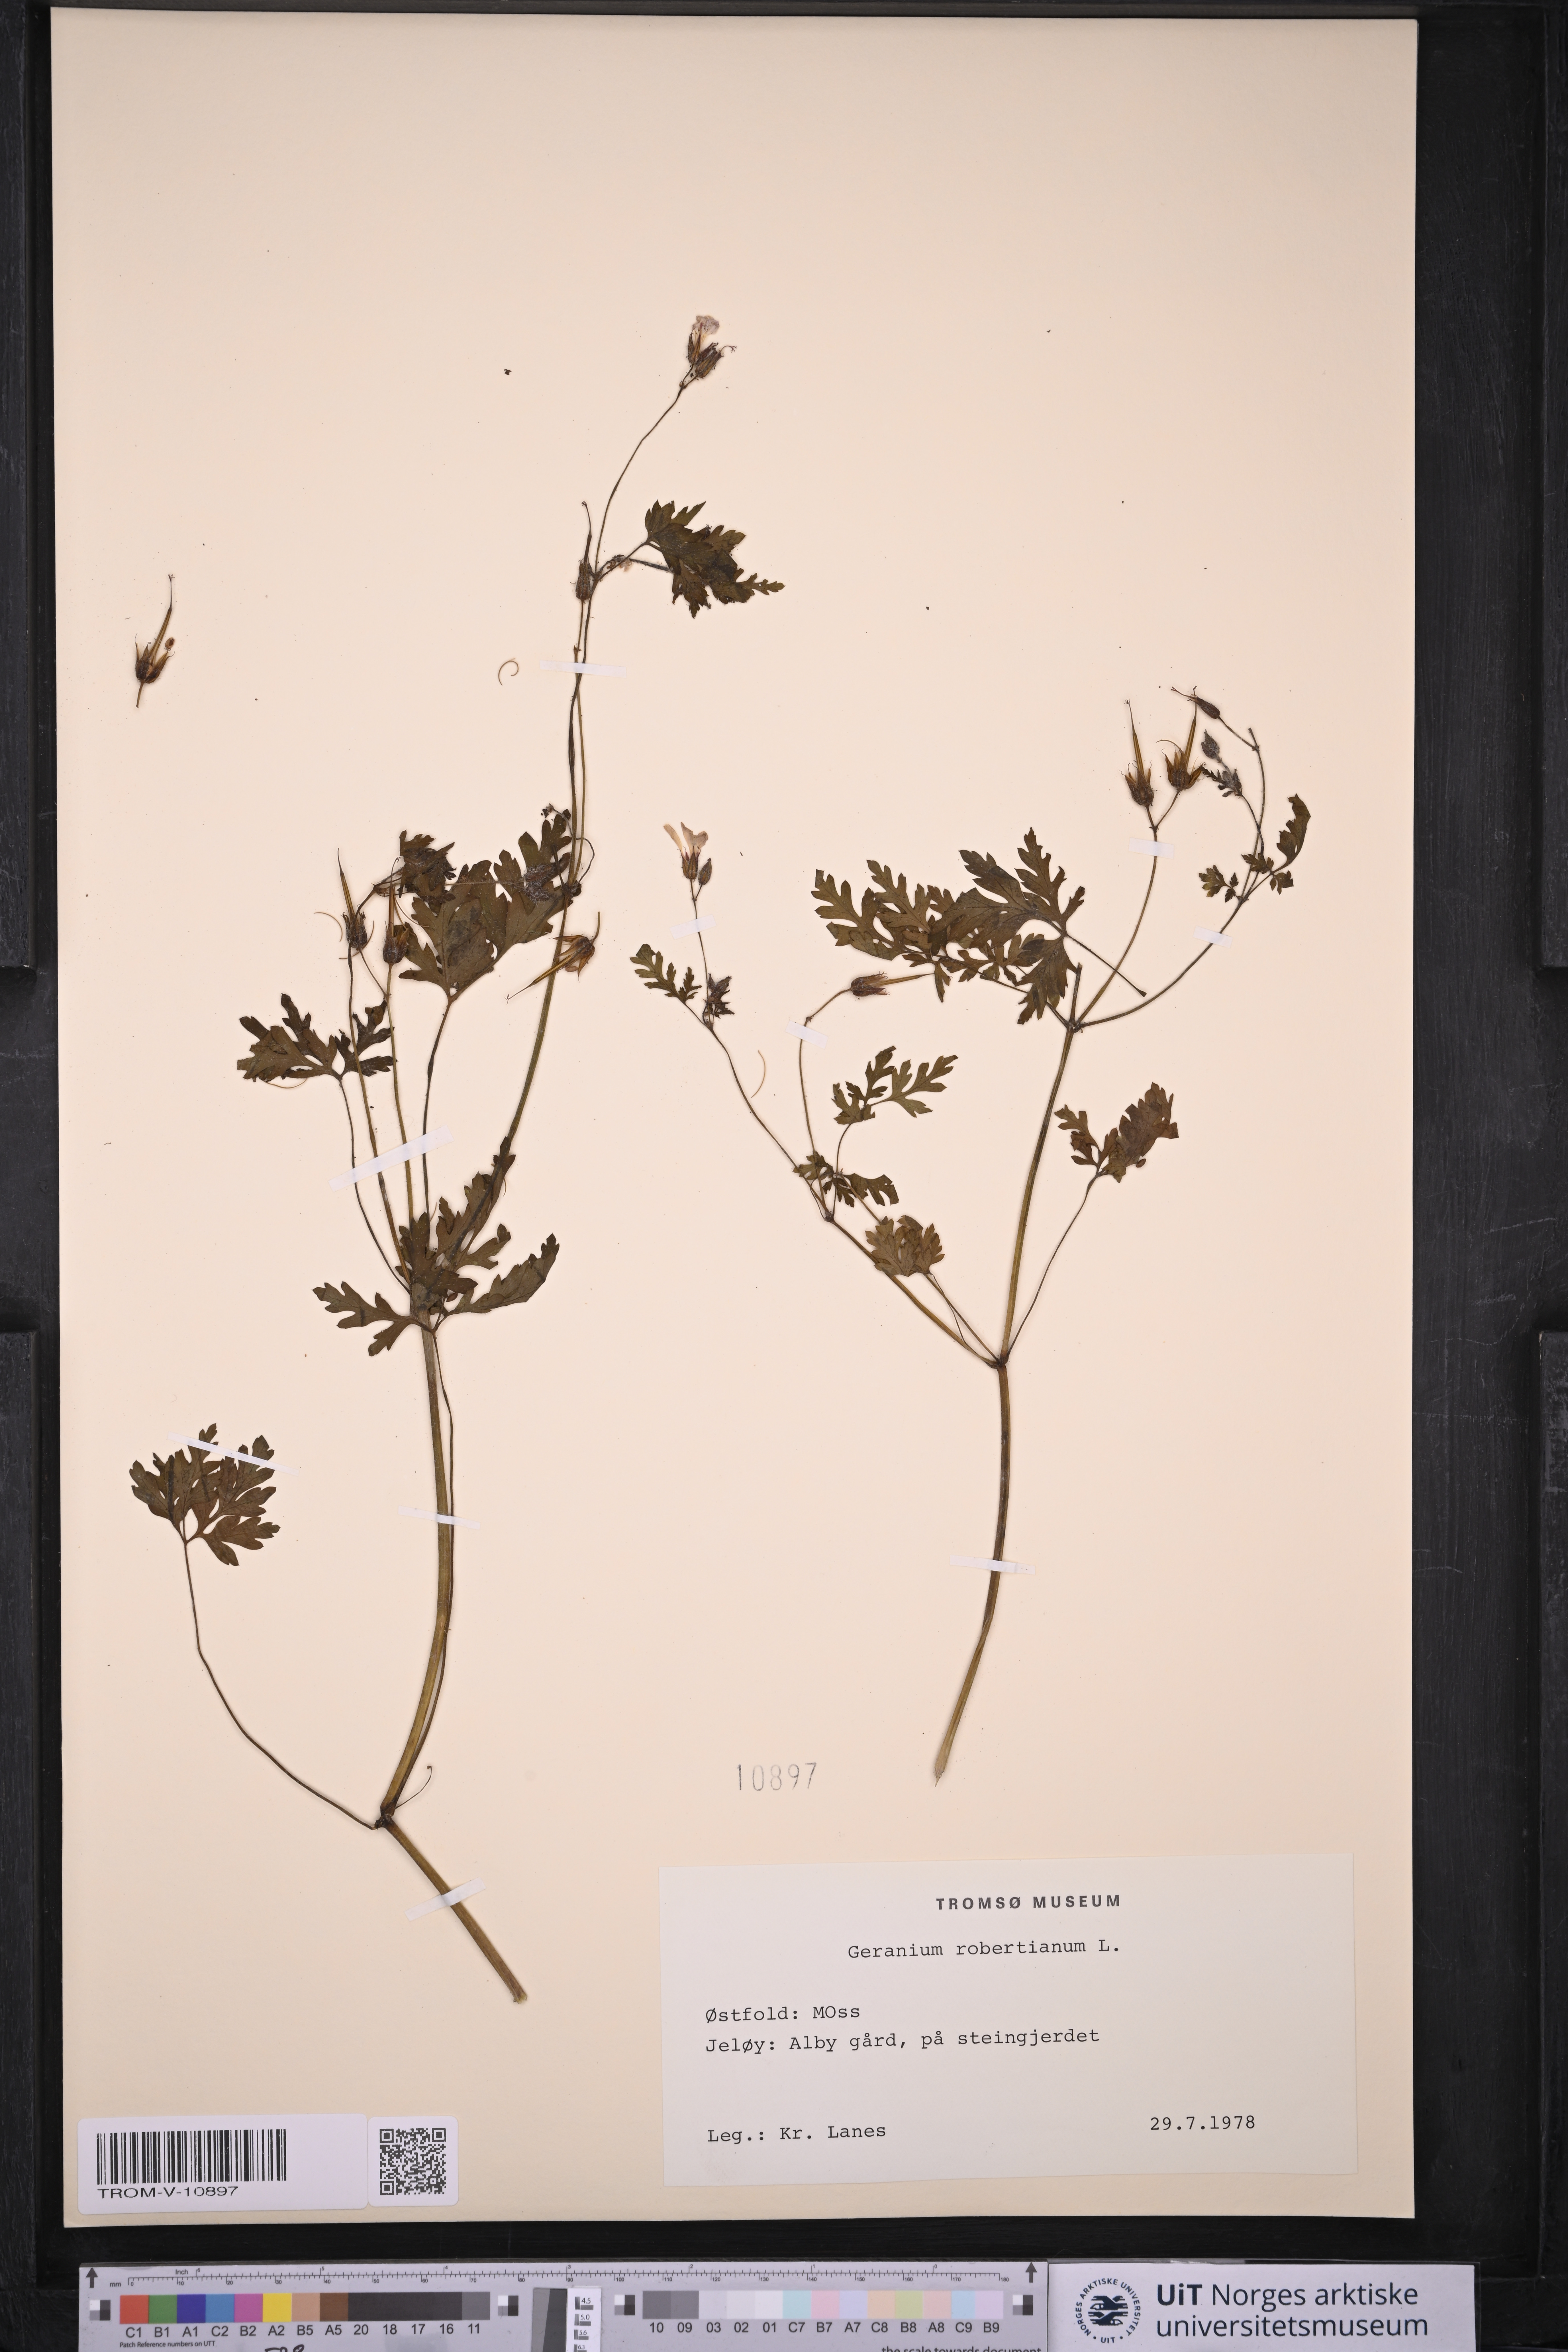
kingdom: Plantae
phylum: Tracheophyta
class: Magnoliopsida
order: Geraniales
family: Geraniaceae
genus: Geranium
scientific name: Geranium robertianum
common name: Herb-robert
